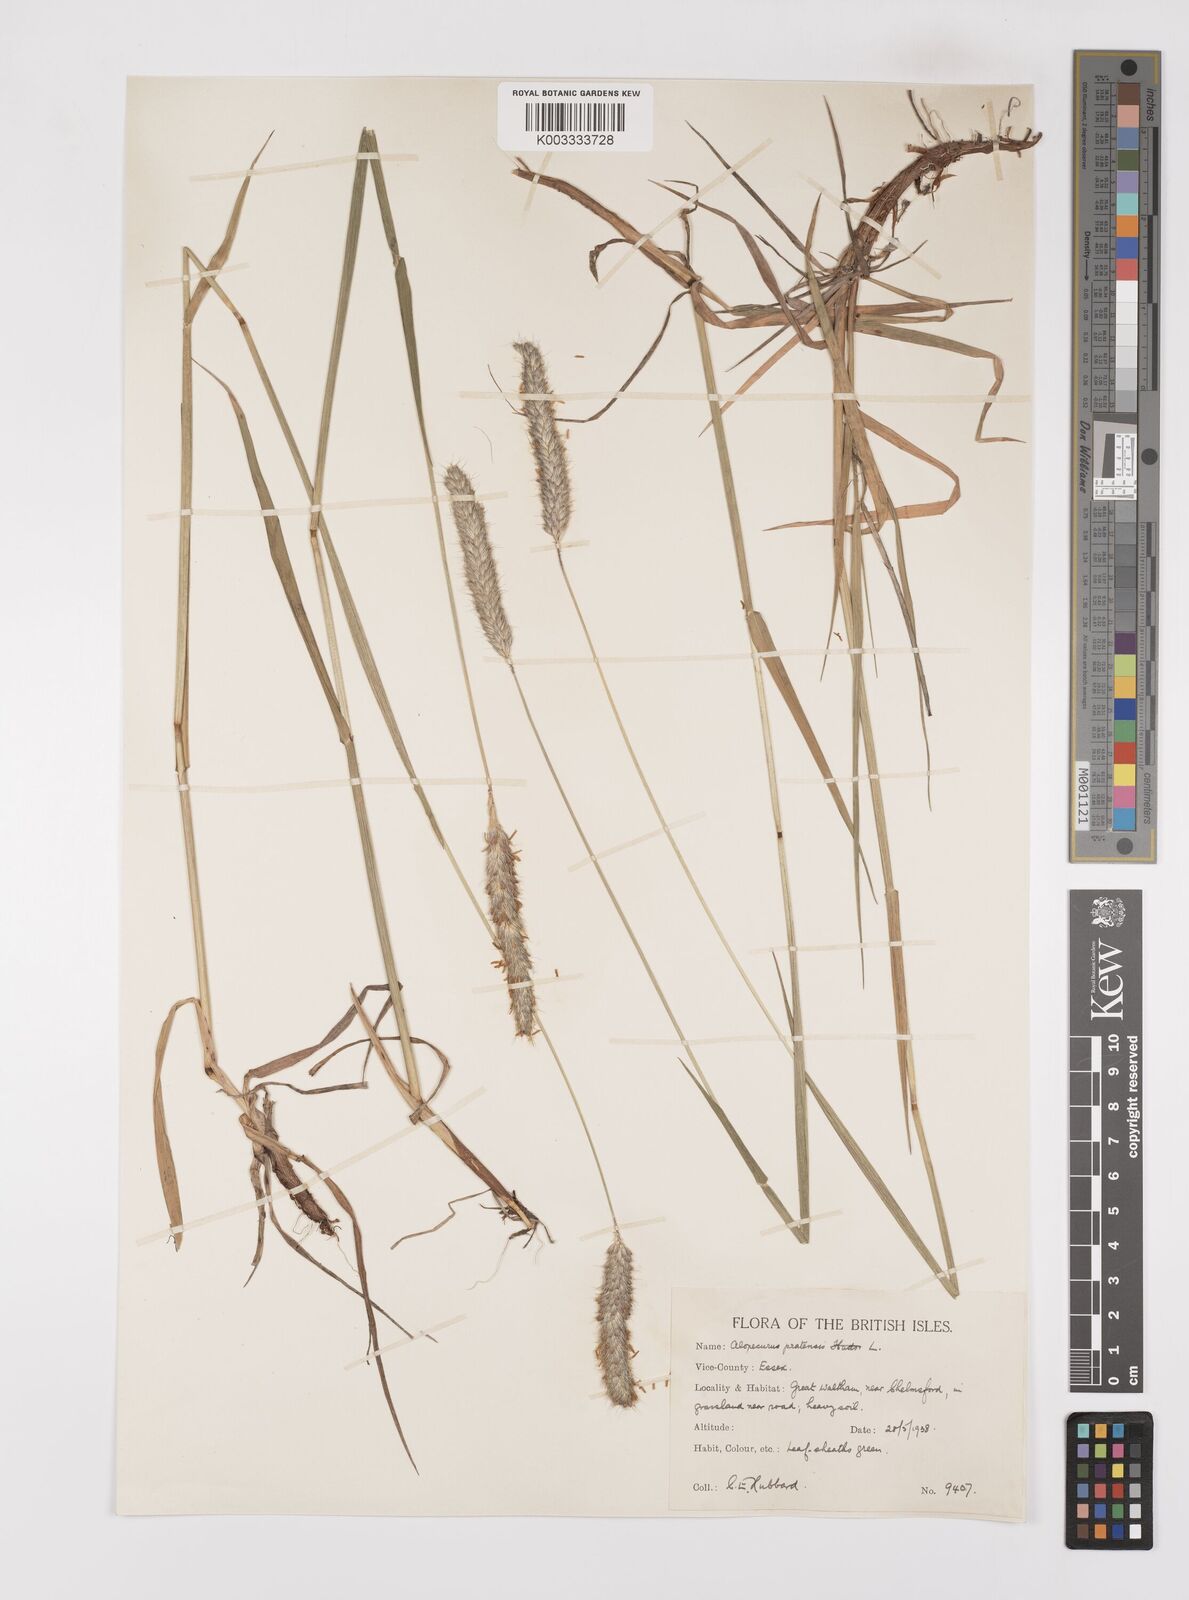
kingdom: Plantae
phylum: Tracheophyta
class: Liliopsida
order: Poales
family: Poaceae
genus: Alopecurus
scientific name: Alopecurus pratensis
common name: Meadow foxtail
